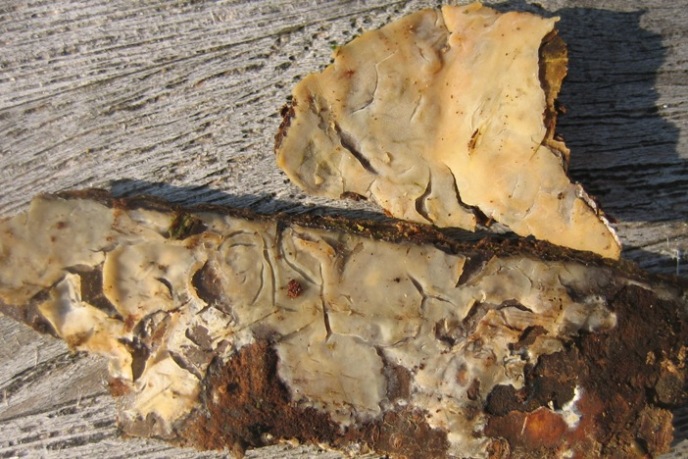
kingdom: Fungi
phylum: Basidiomycota
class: Agaricomycetes
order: Agaricales
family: Radulomycetaceae
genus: Radulomyces
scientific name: Radulomyces confluens
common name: glat naftalinskind
